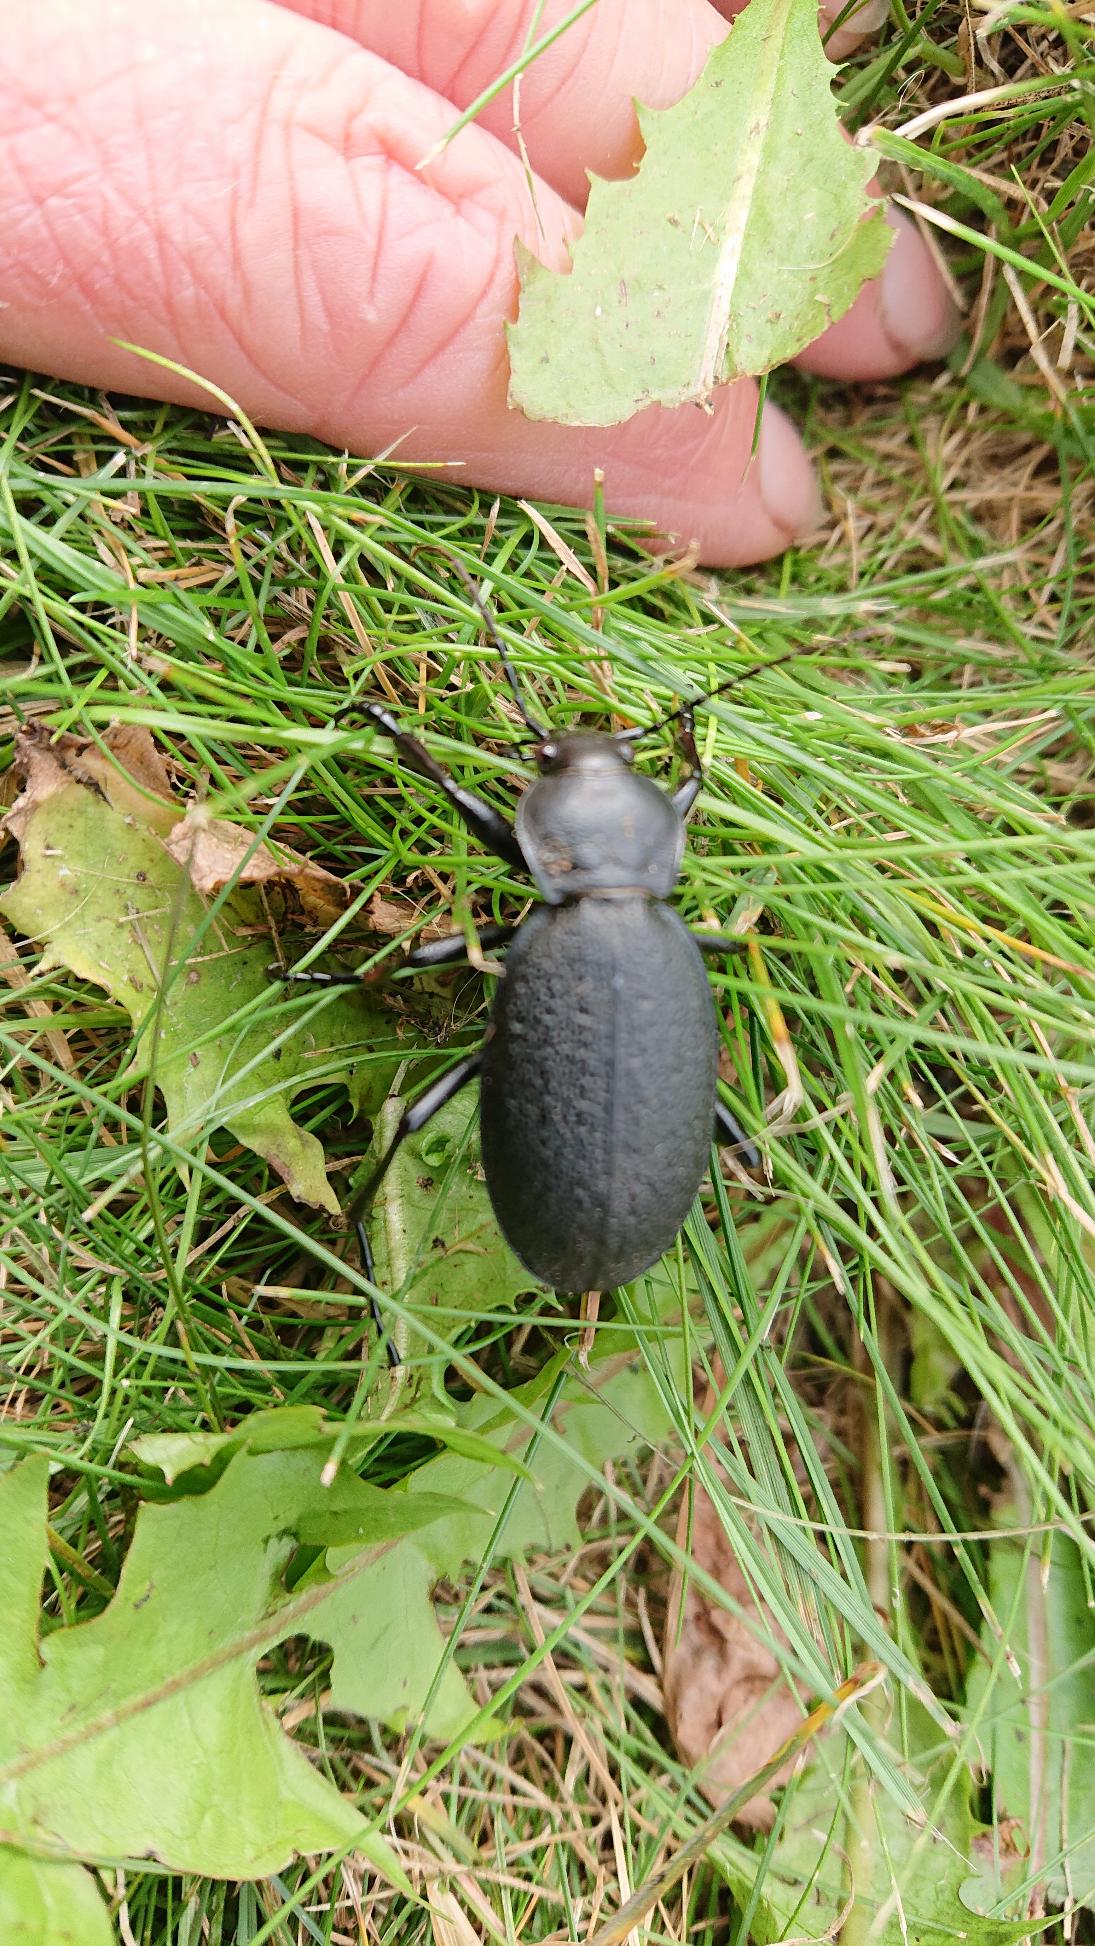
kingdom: Animalia
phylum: Arthropoda
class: Insecta
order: Coleoptera
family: Carabidae
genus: Carabus
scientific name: Carabus coriaceus
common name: Læderløber
